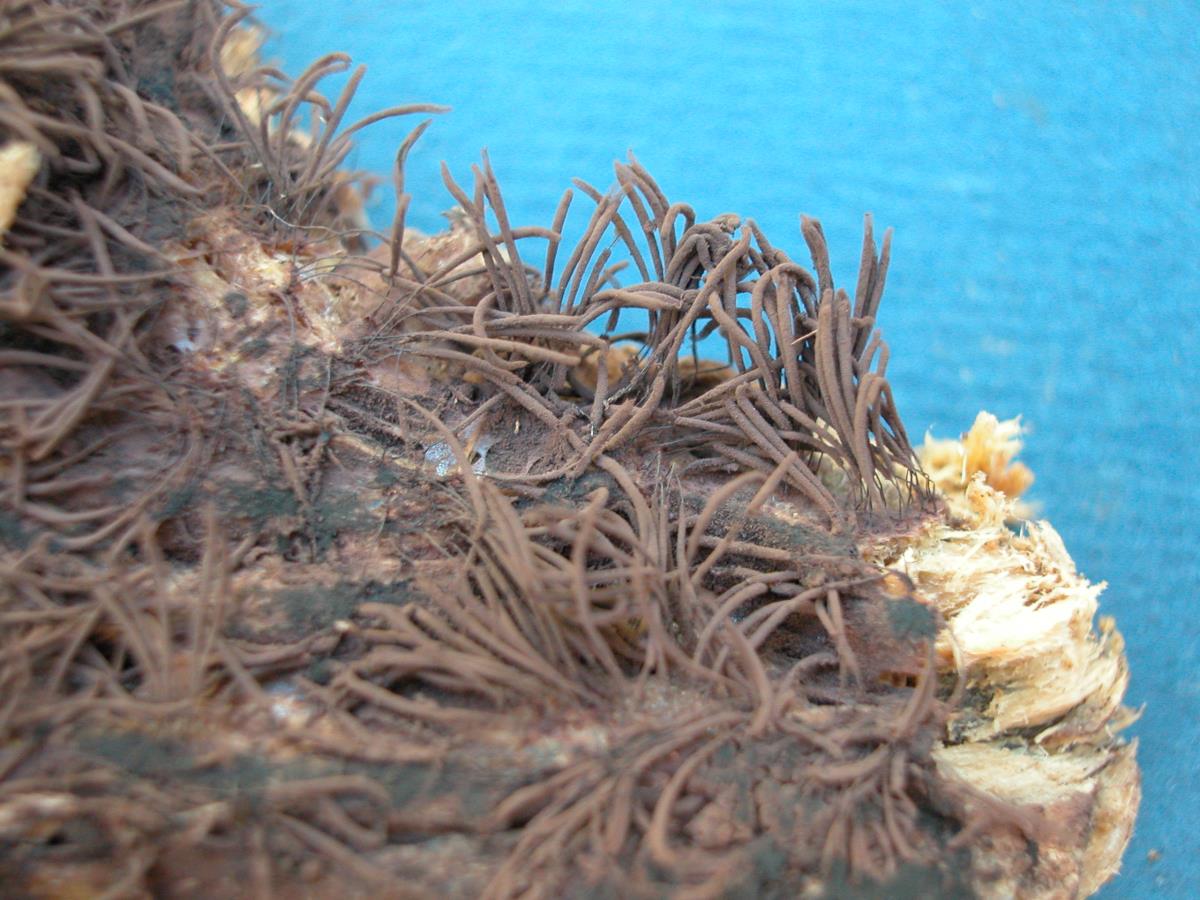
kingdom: Protozoa
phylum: Mycetozoa
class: Myxomycetes
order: Stemonitidales
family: Stemonitidaceae
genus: Stemonitis
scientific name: Stemonitis fusca
